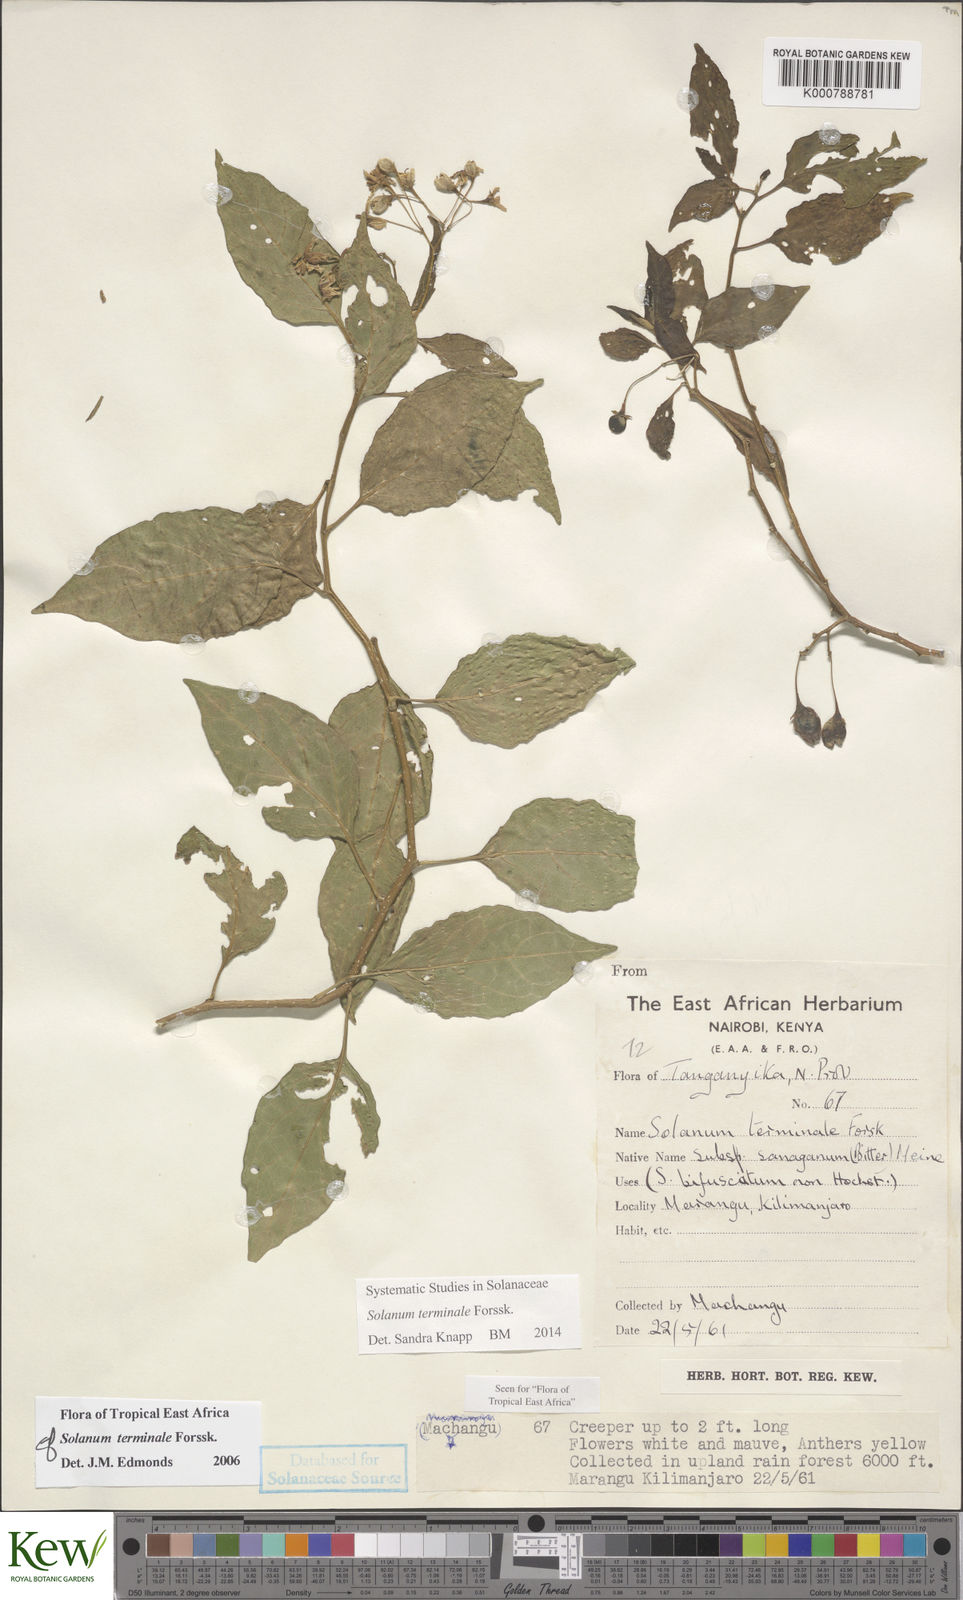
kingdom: Plantae
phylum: Tracheophyta
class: Magnoliopsida
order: Solanales
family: Solanaceae
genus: Solanum
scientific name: Solanum terminale
